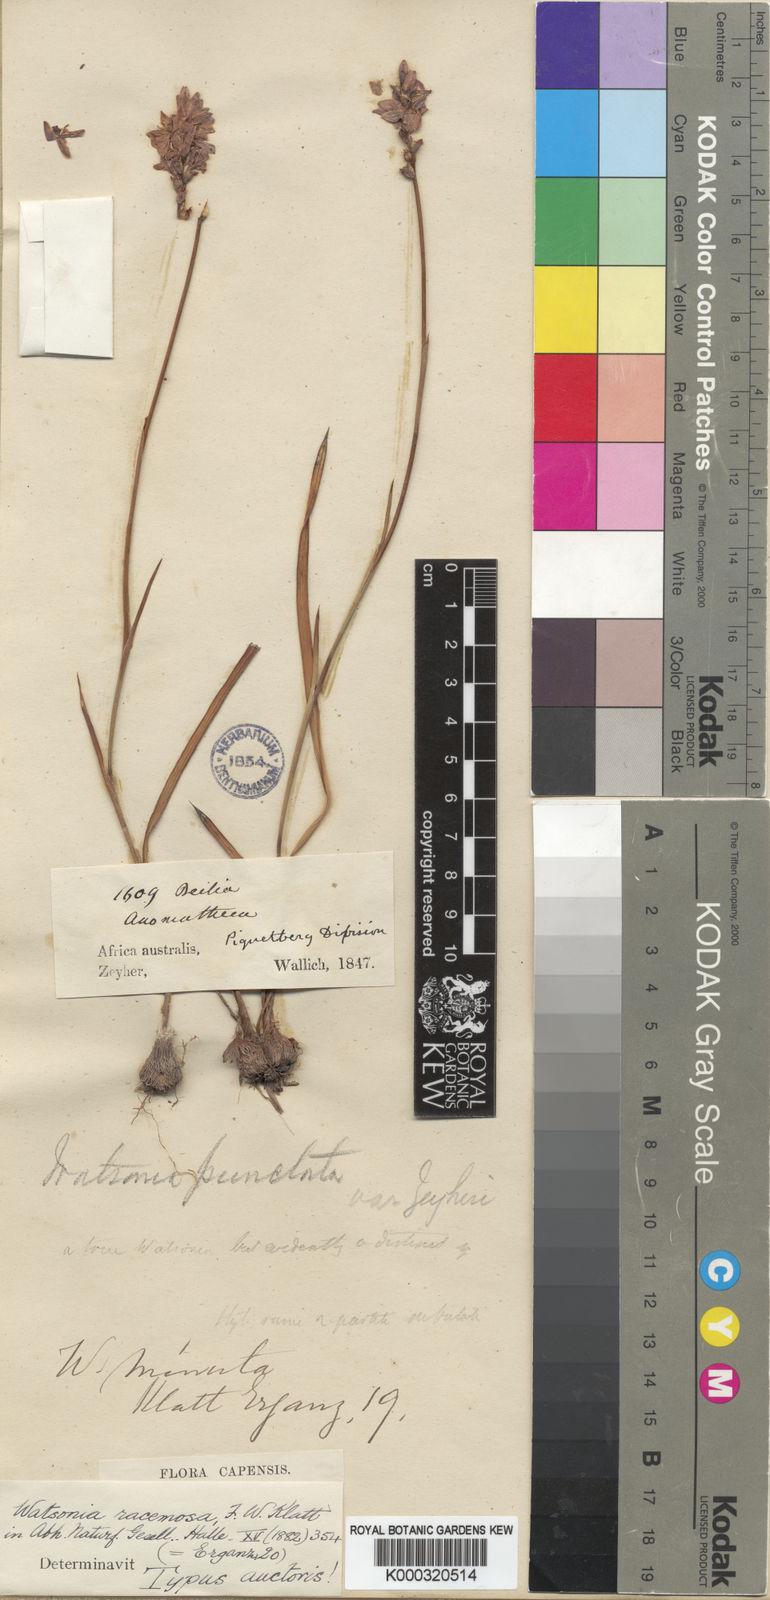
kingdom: Plantae
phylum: Tracheophyta
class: Liliopsida
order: Asparagales
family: Iridaceae
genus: Thereianthus
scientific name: Thereianthus racemosus
